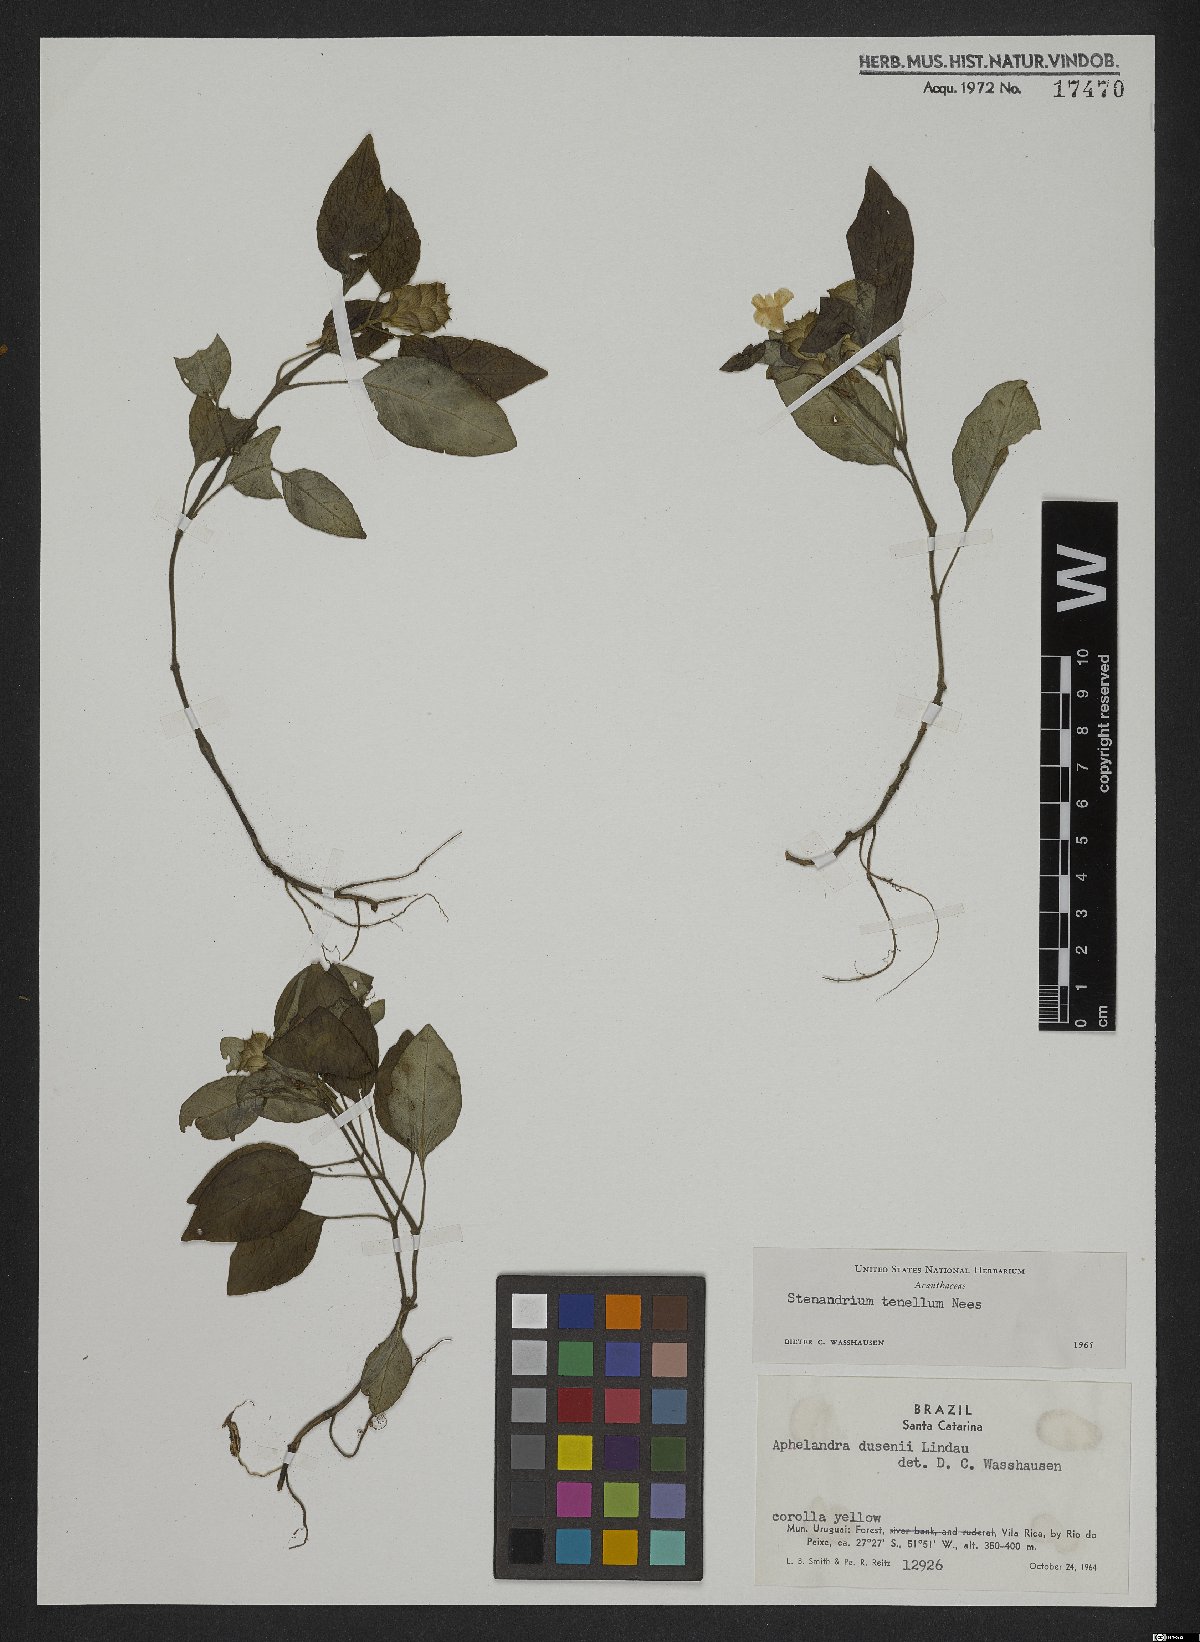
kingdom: Plantae
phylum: Tracheophyta
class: Magnoliopsida
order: Lamiales
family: Acanthaceae
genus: Stenandrium
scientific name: Stenandrium tenellum
